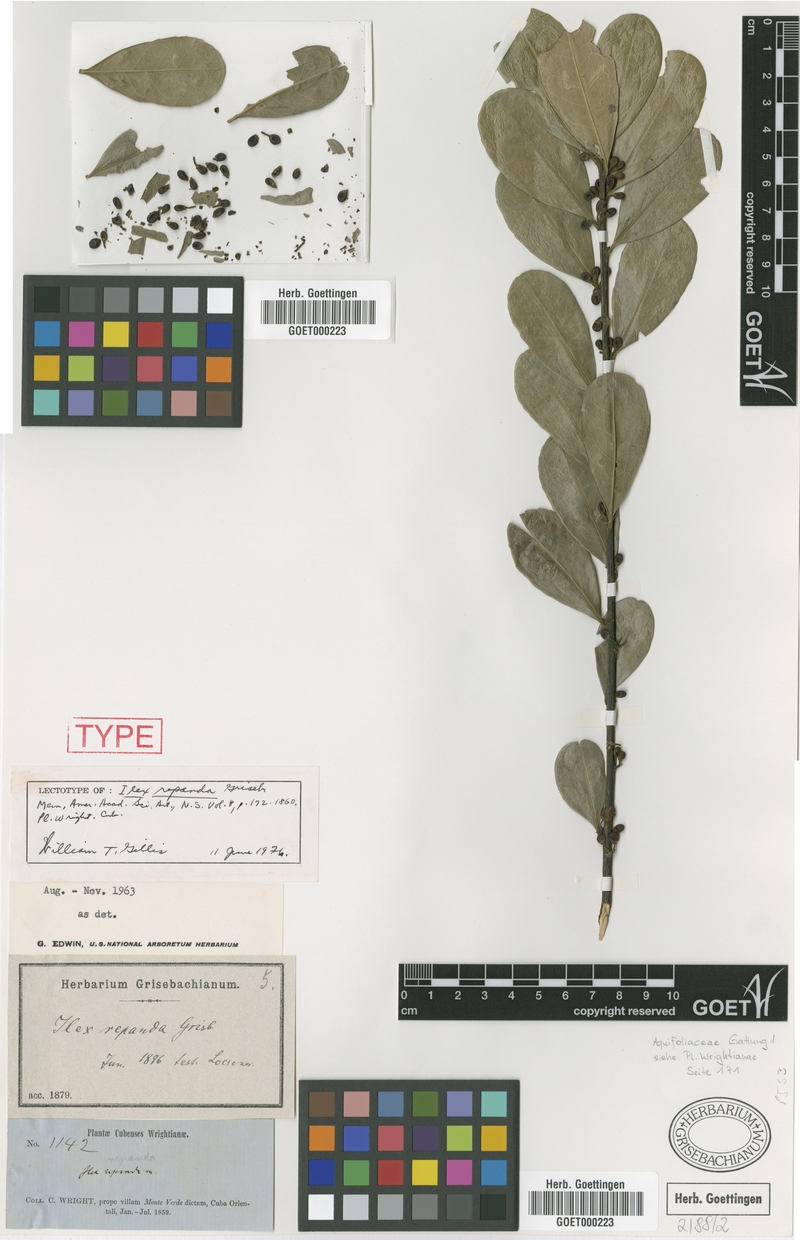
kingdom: Plantae
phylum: Tracheophyta
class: Magnoliopsida
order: Aquifoliales
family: Aquifoliaceae
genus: Ilex
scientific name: Ilex nitida
